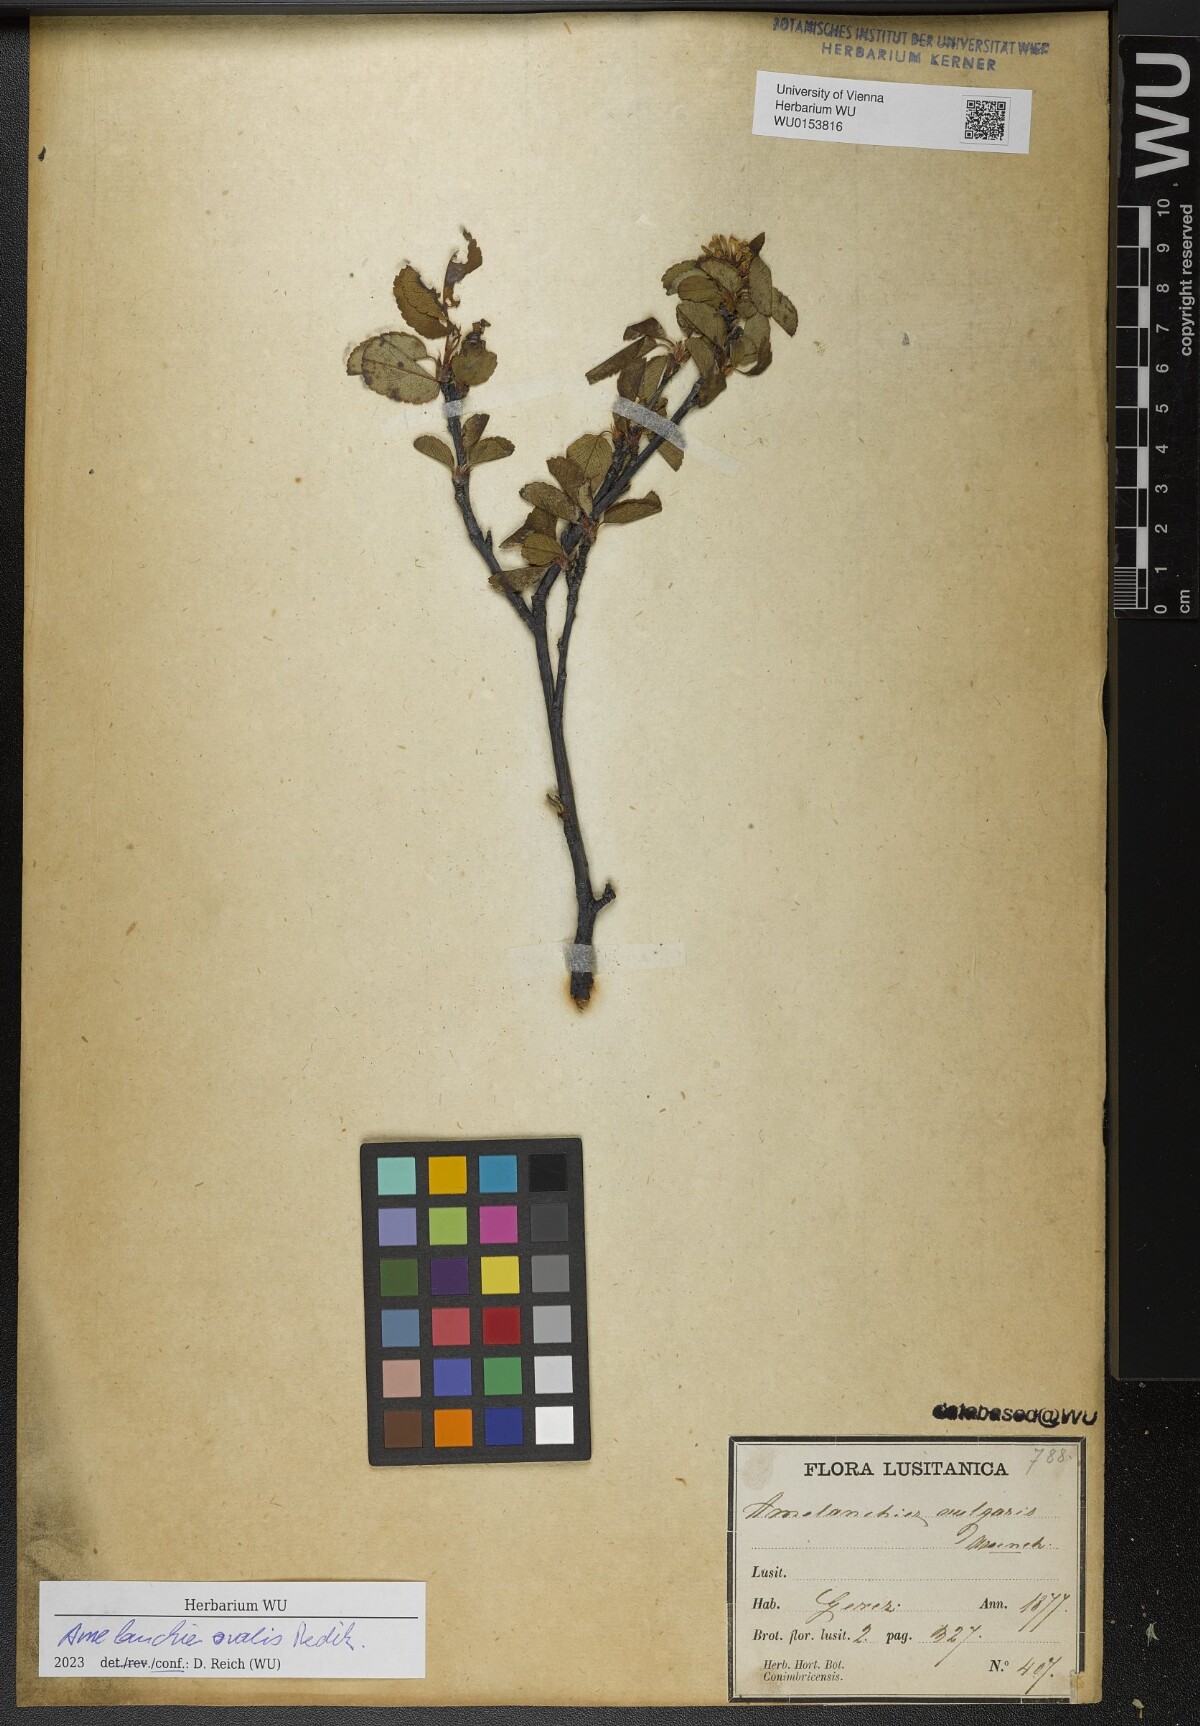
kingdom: Plantae
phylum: Tracheophyta
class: Magnoliopsida
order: Rosales
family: Rosaceae
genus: Amelanchier
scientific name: Amelanchier ovalis
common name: Serviceberry
